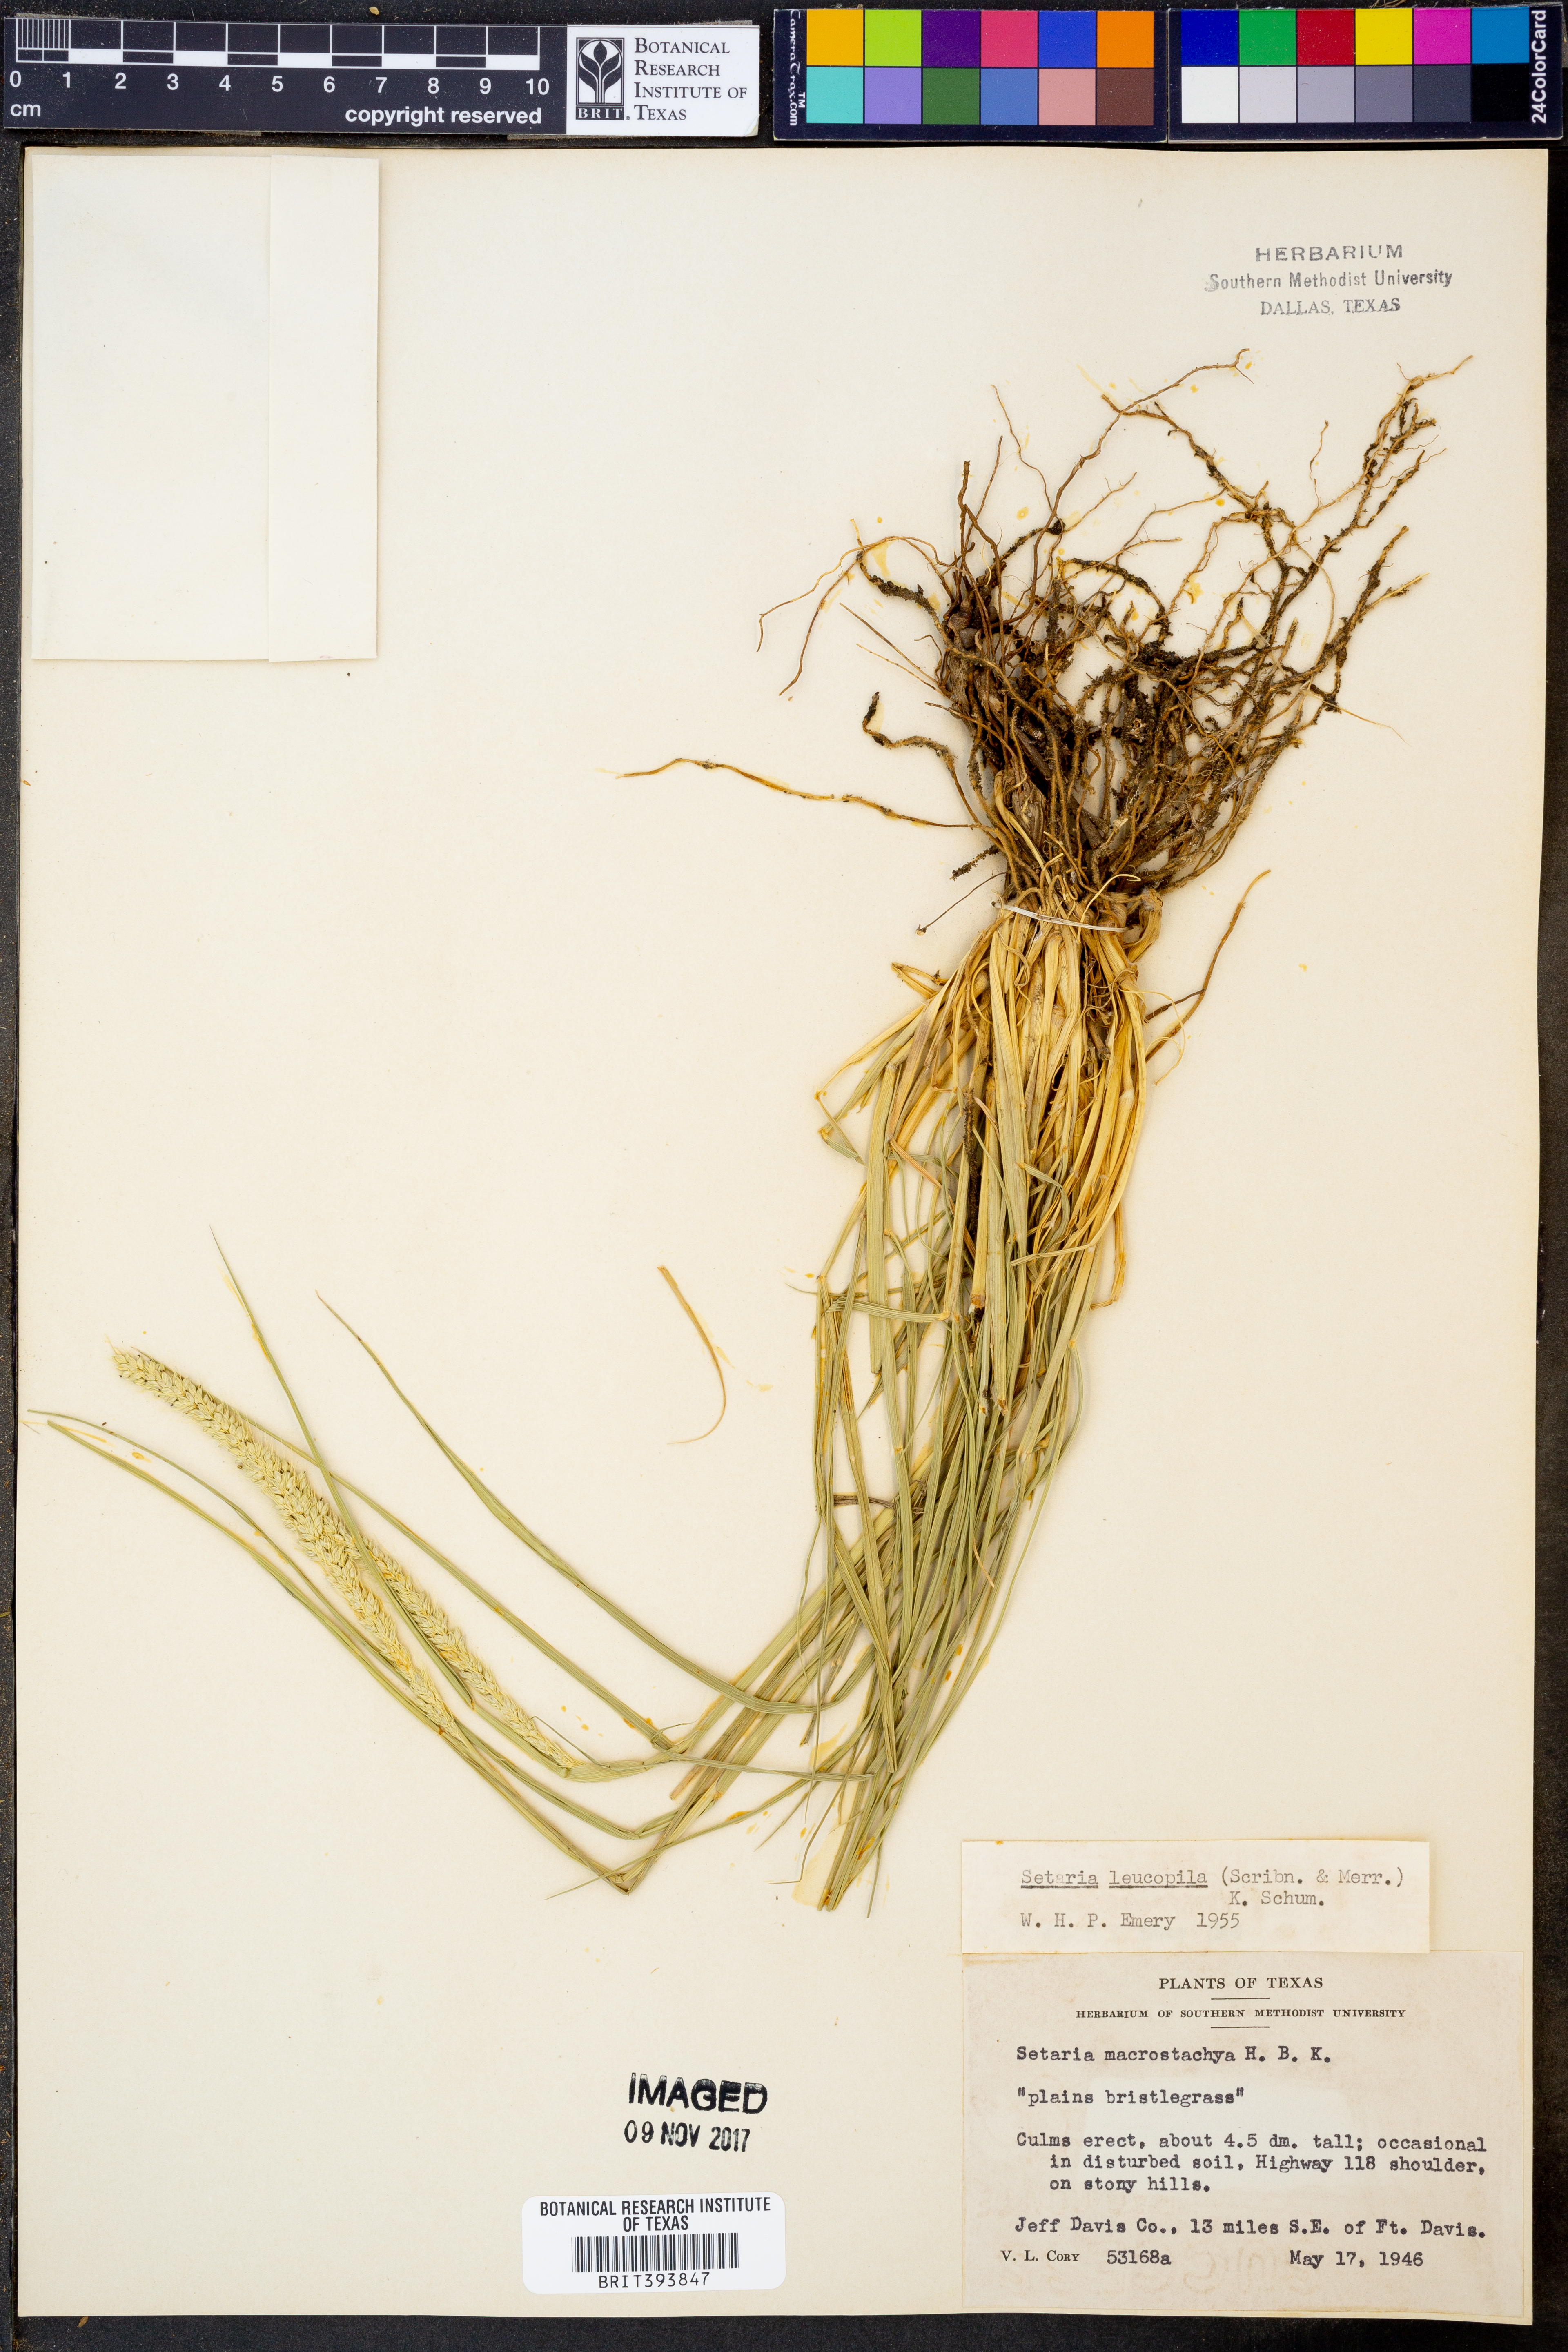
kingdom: Plantae
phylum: Tracheophyta
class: Liliopsida
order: Poales
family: Poaceae
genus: Setaria
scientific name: Setaria leucopila
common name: Plains bristle grass
